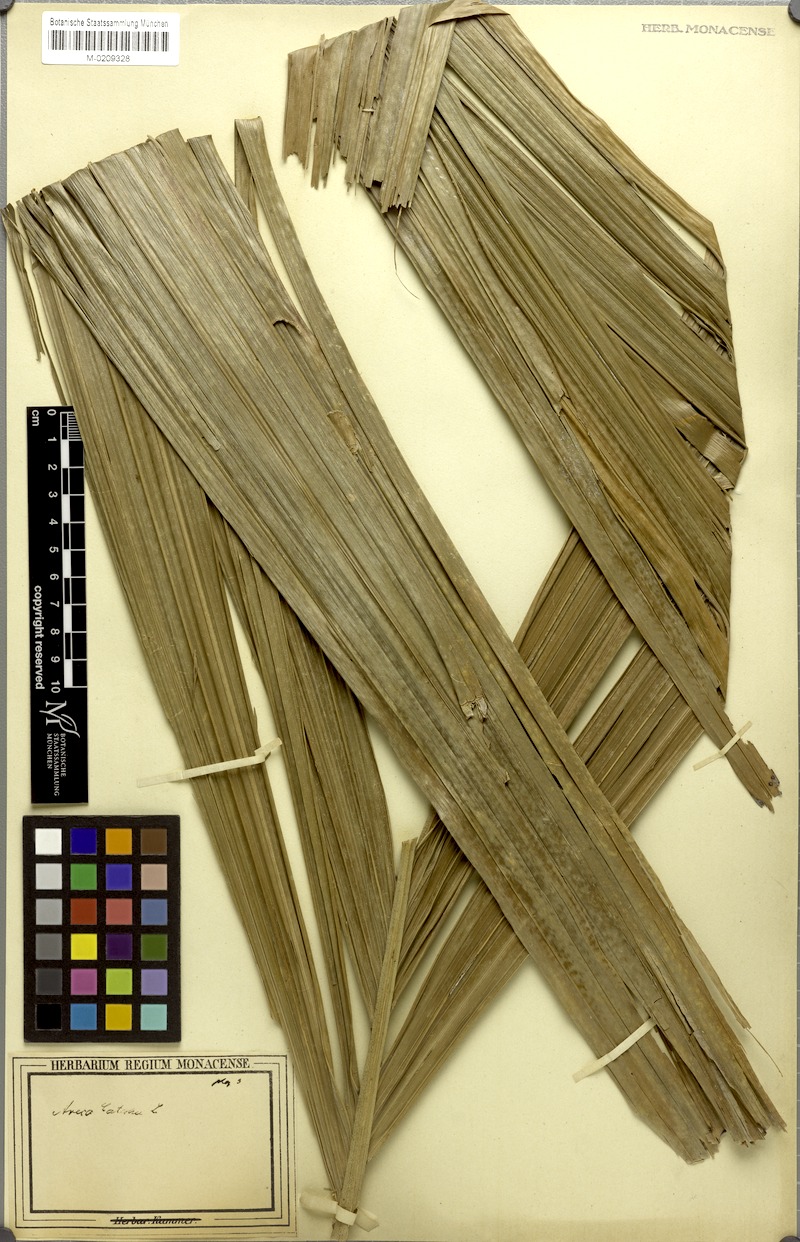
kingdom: Plantae
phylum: Tracheophyta
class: Liliopsida
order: Arecales
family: Arecaceae
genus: Areca
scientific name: Areca catechu
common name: Indian-nut
